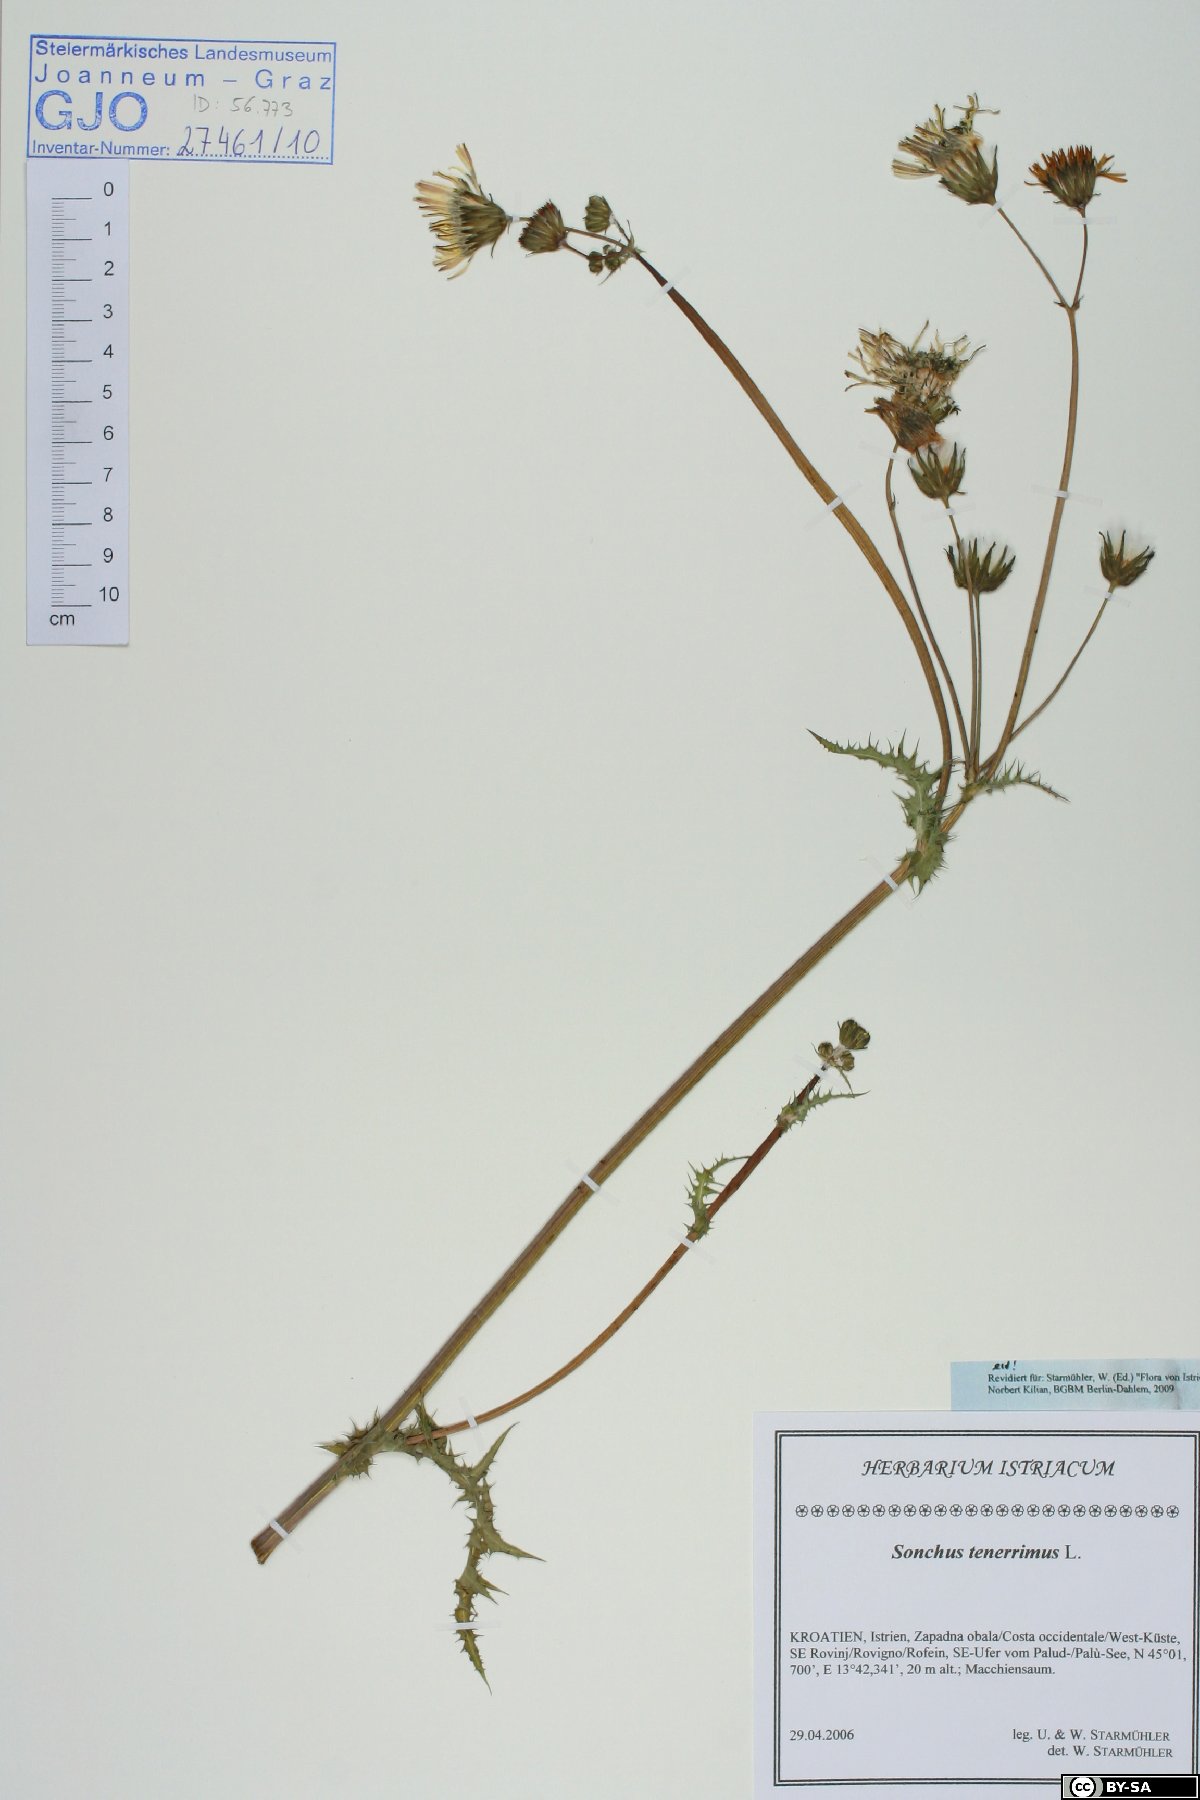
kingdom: Plantae
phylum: Tracheophyta
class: Magnoliopsida
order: Asterales
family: Asteraceae
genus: Sonchus
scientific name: Sonchus tenerrimus
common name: Clammy sowthistle
